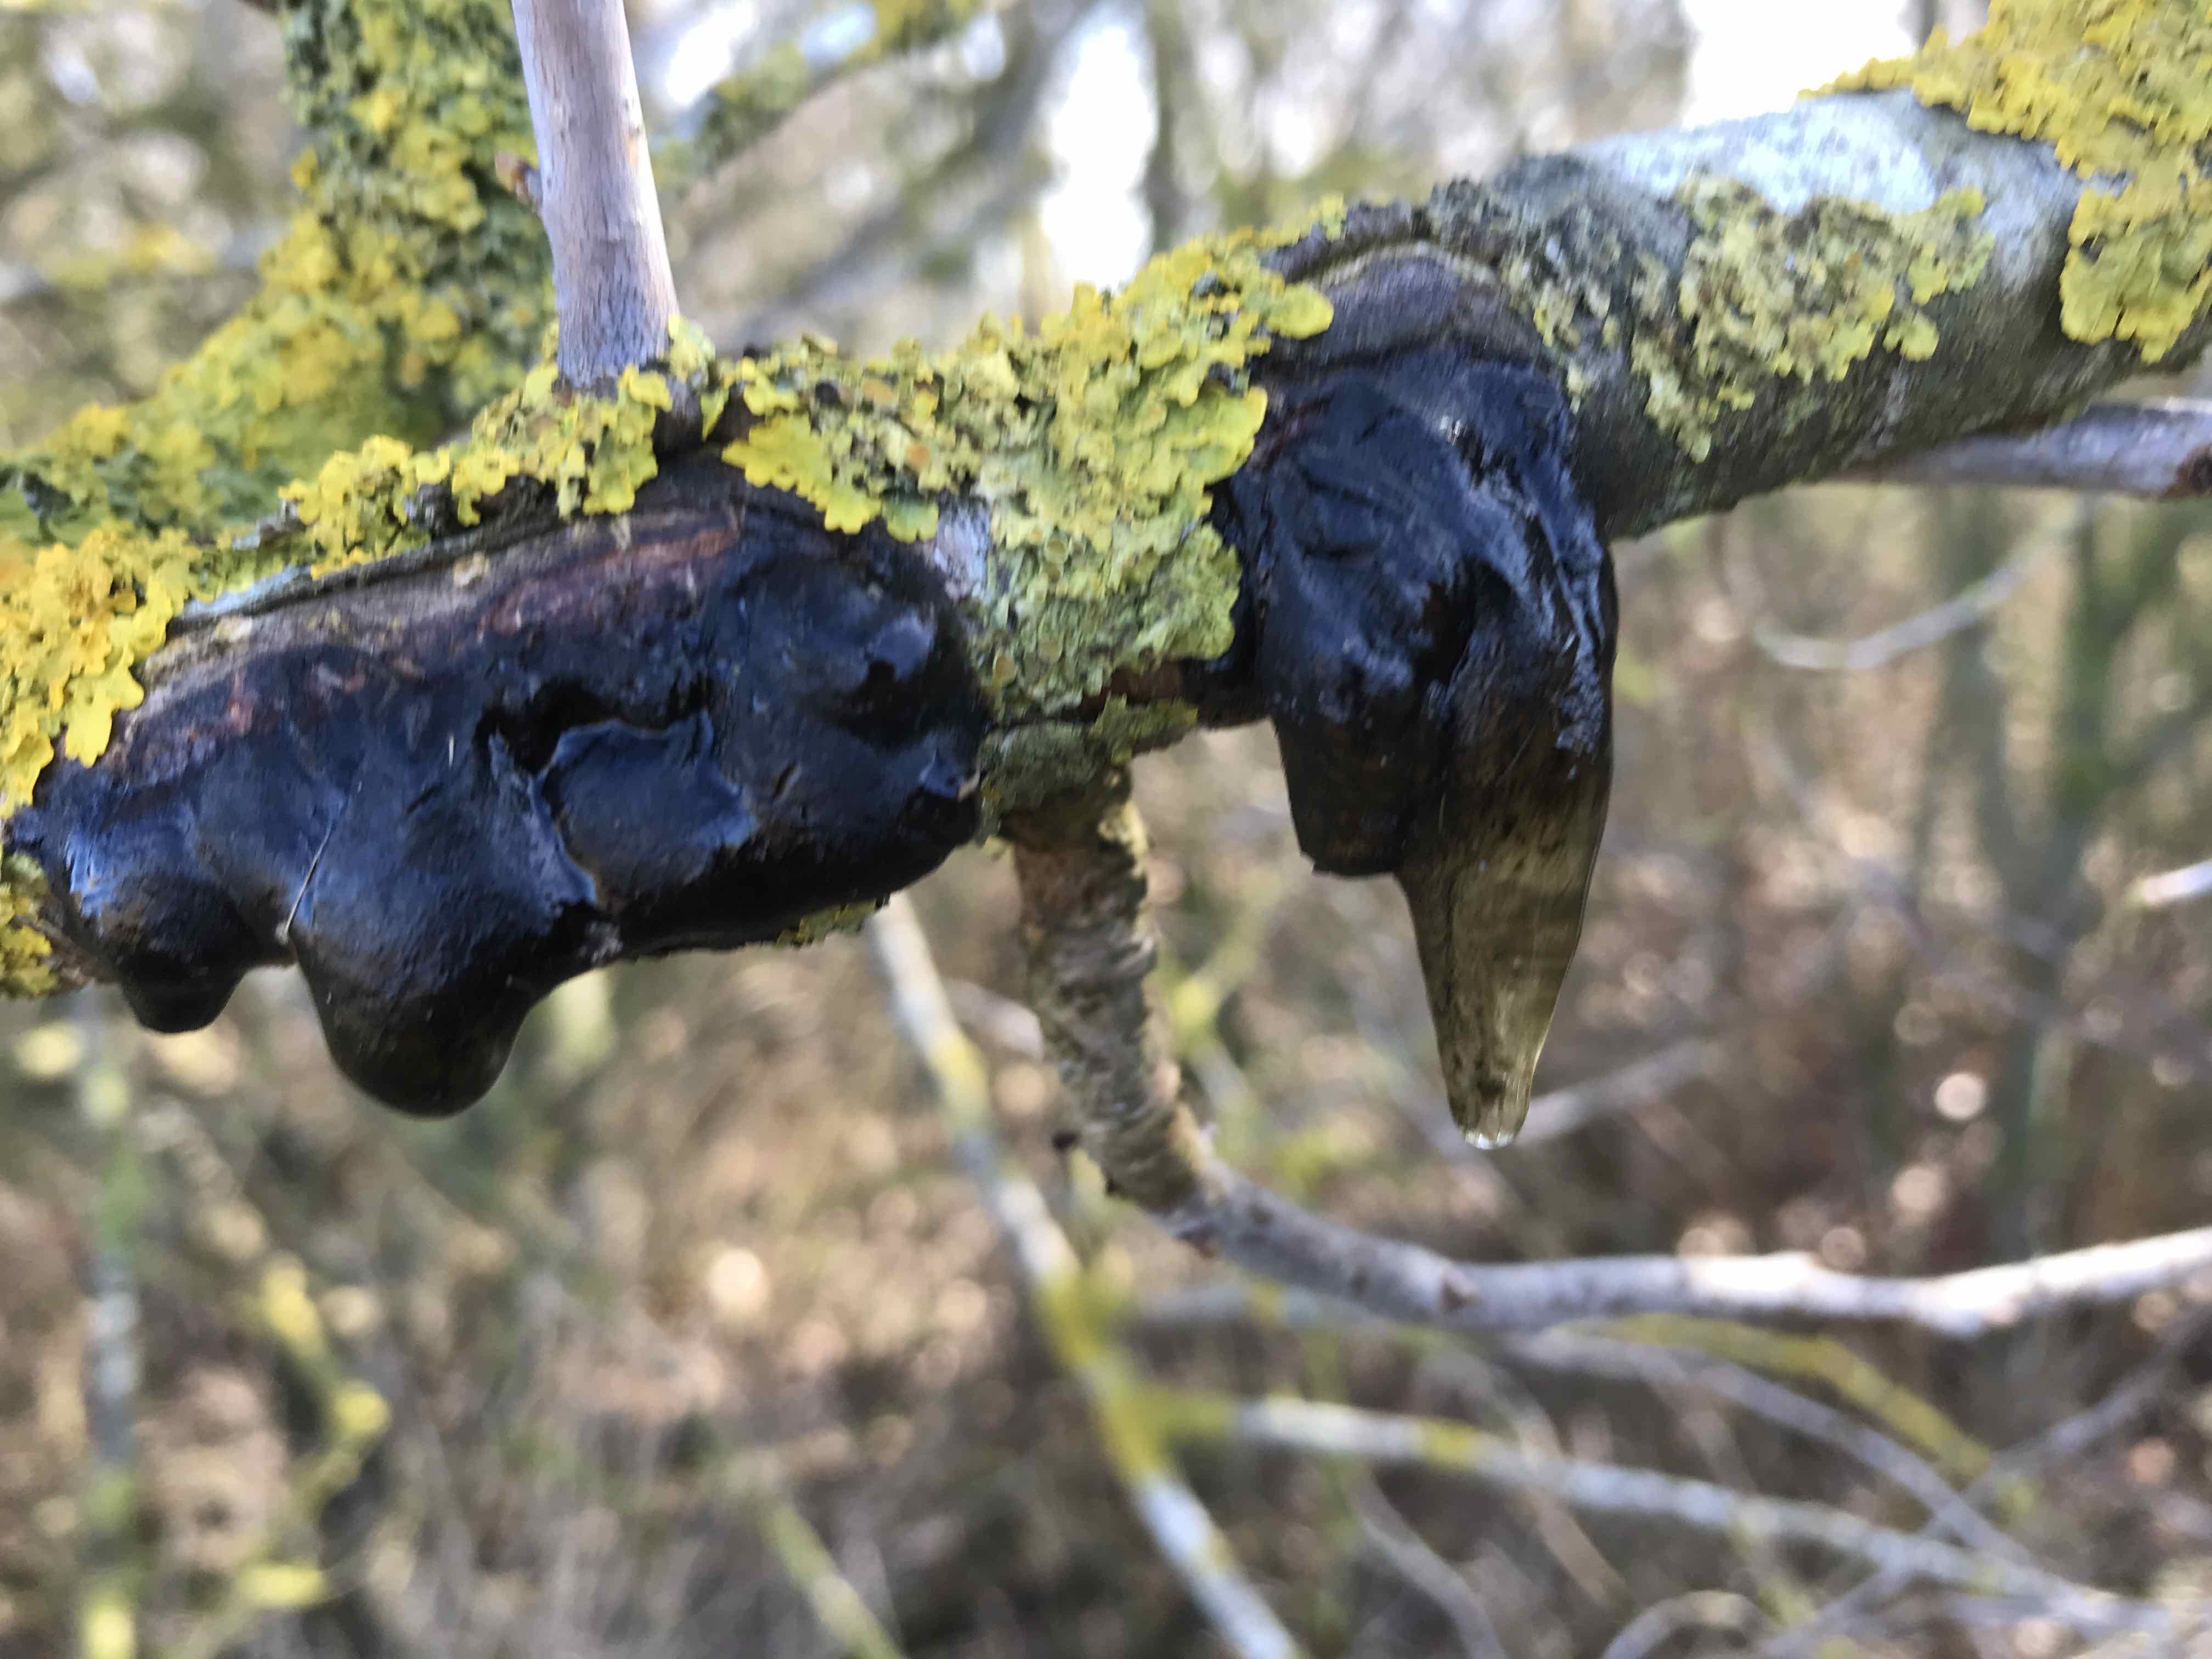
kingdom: Fungi
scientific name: Fungi
